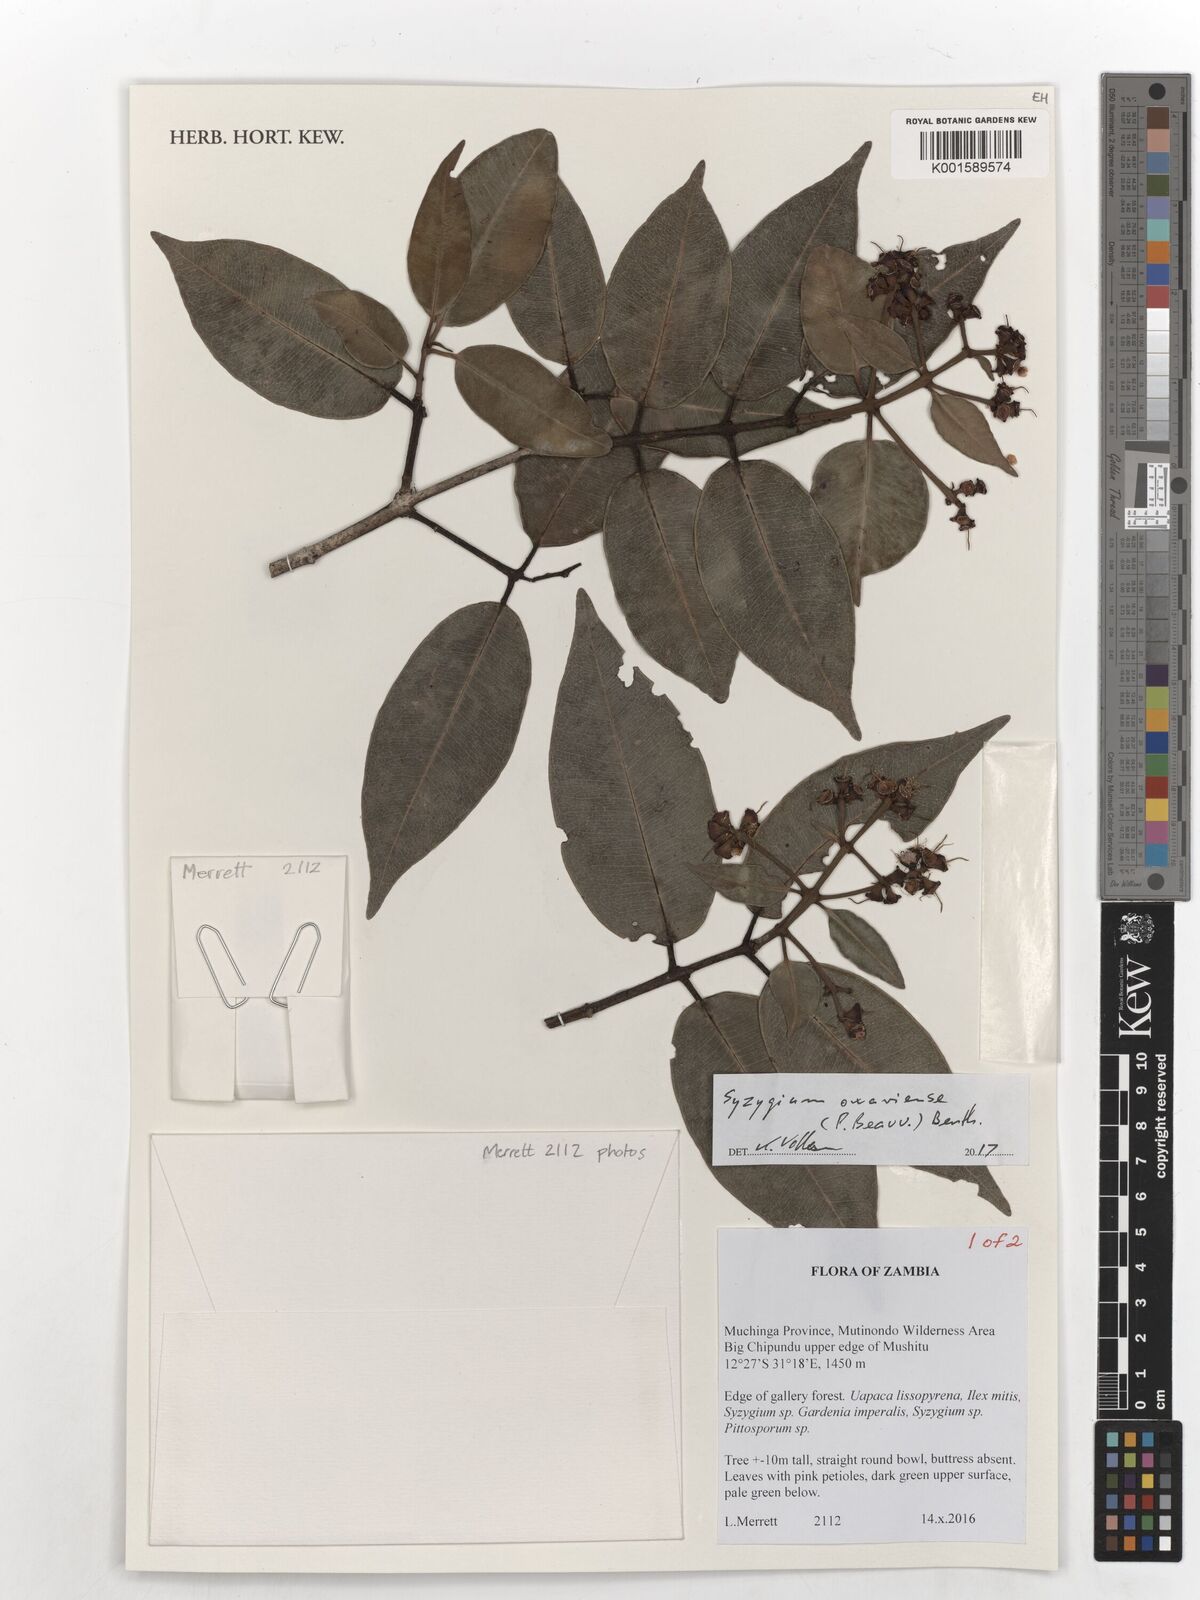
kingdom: Plantae
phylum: Tracheophyta
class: Magnoliopsida
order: Myrtales
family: Myrtaceae
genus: Syzygium
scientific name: Syzygium owariense
